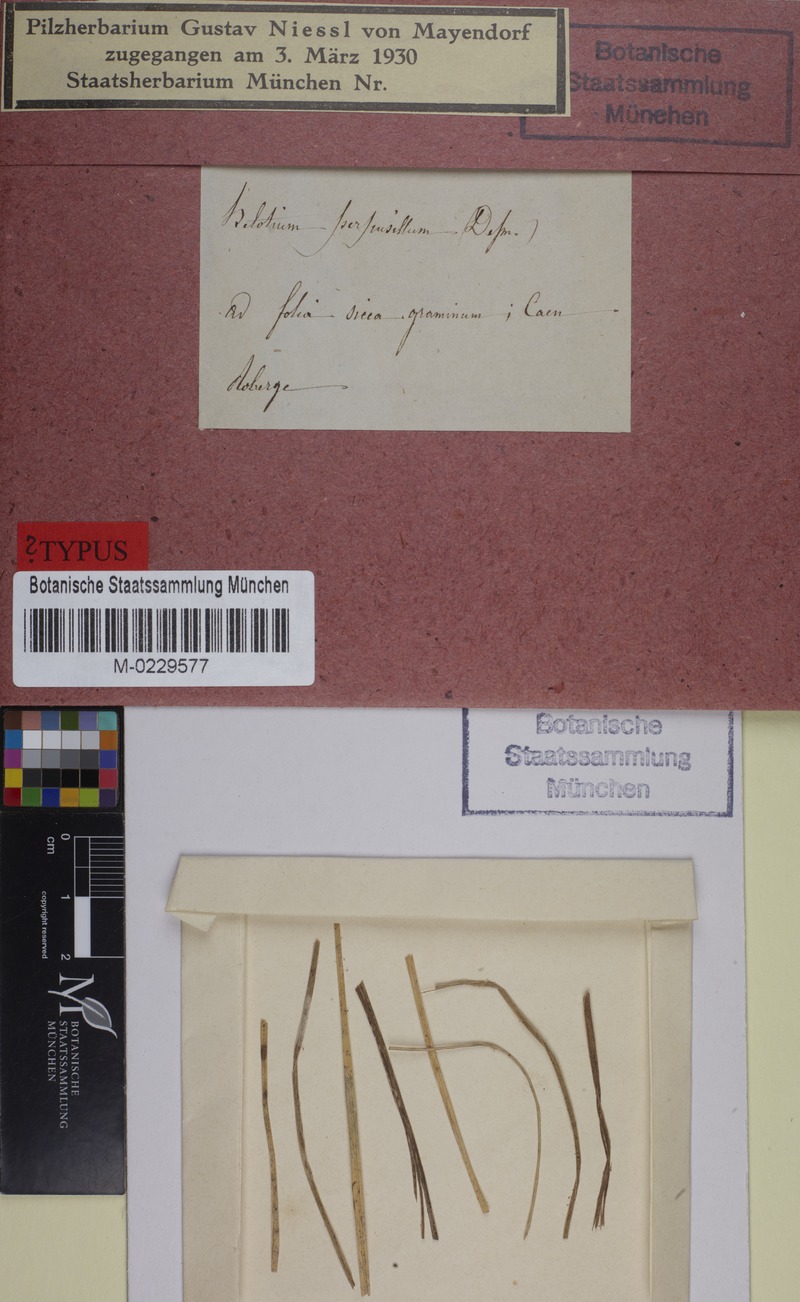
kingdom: Fungi
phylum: Ascomycota
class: Leotiomycetes
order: Helotiales
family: Helotiaceae
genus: Hymenoscyphus
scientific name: Hymenoscyphus Helotium perpusillum
